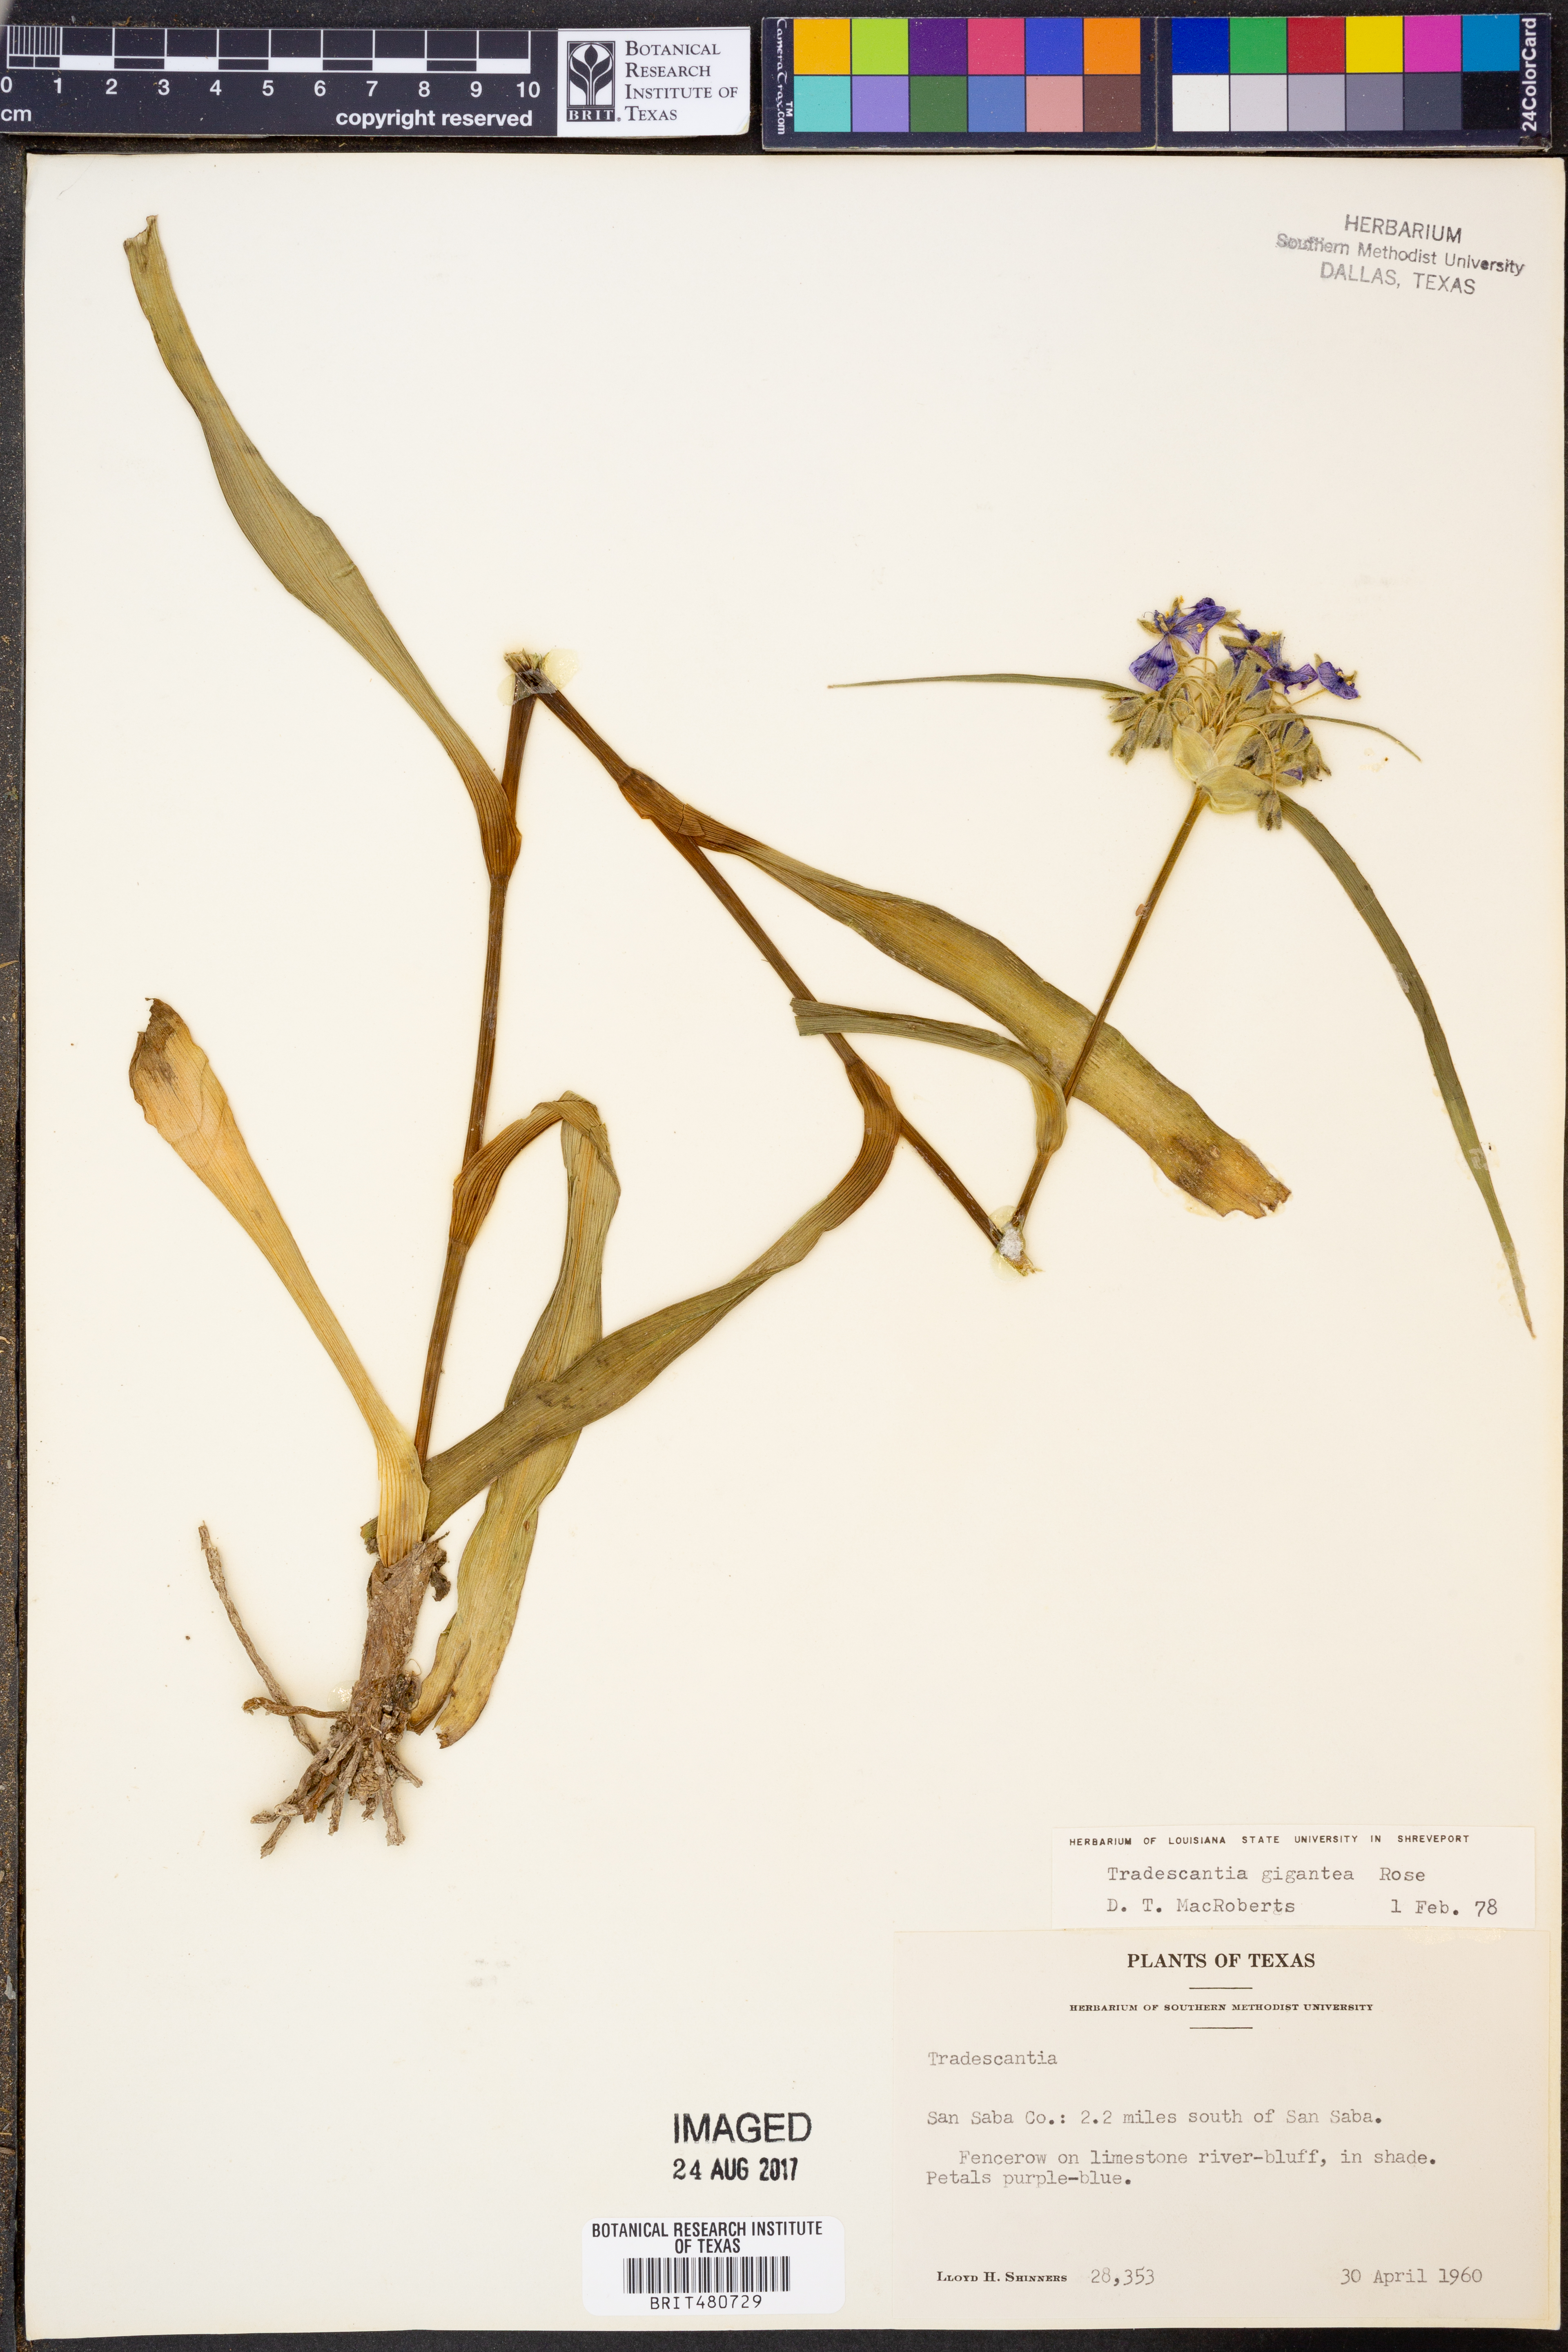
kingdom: Plantae
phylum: Tracheophyta
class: Liliopsida
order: Commelinales
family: Commelinaceae
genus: Tradescantia
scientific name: Tradescantia gigantea
